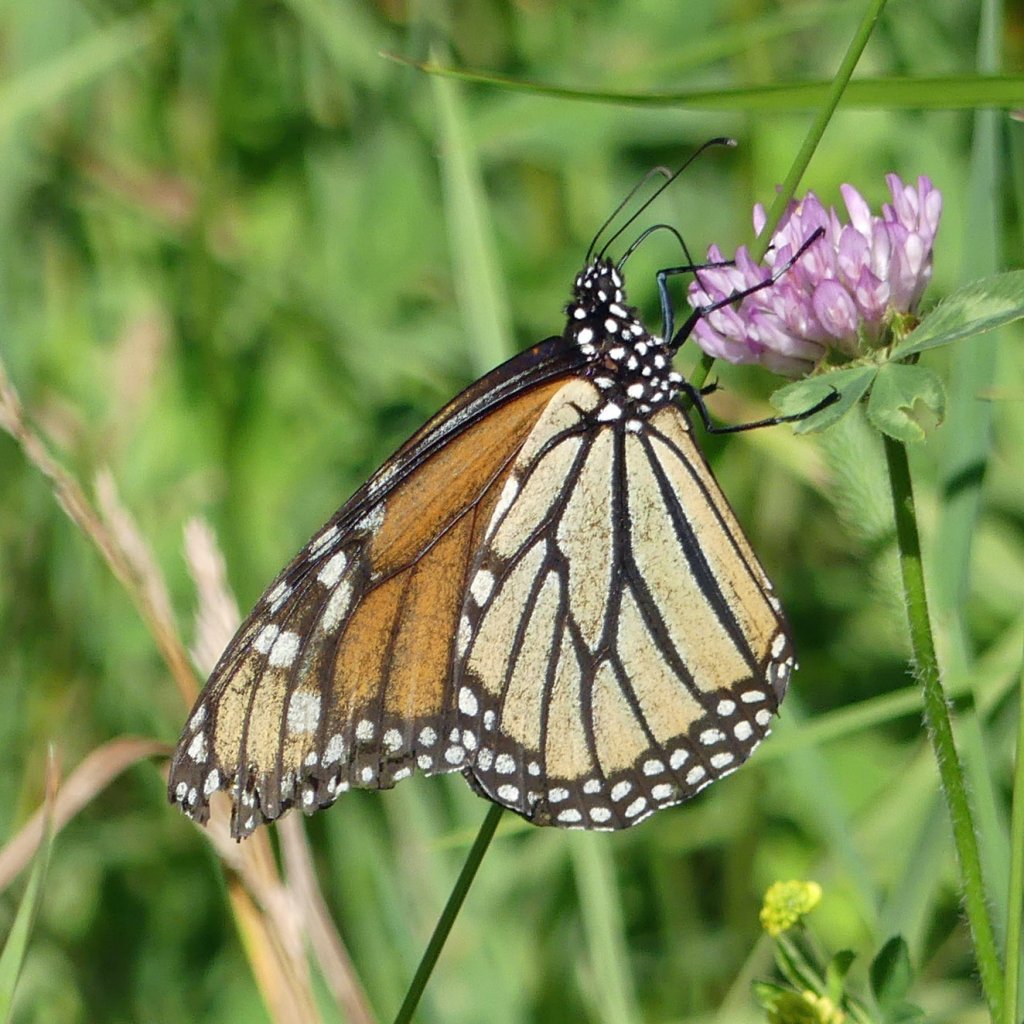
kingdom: Animalia
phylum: Arthropoda
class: Insecta
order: Lepidoptera
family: Nymphalidae
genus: Danaus
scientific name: Danaus plexippus
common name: Monarch
